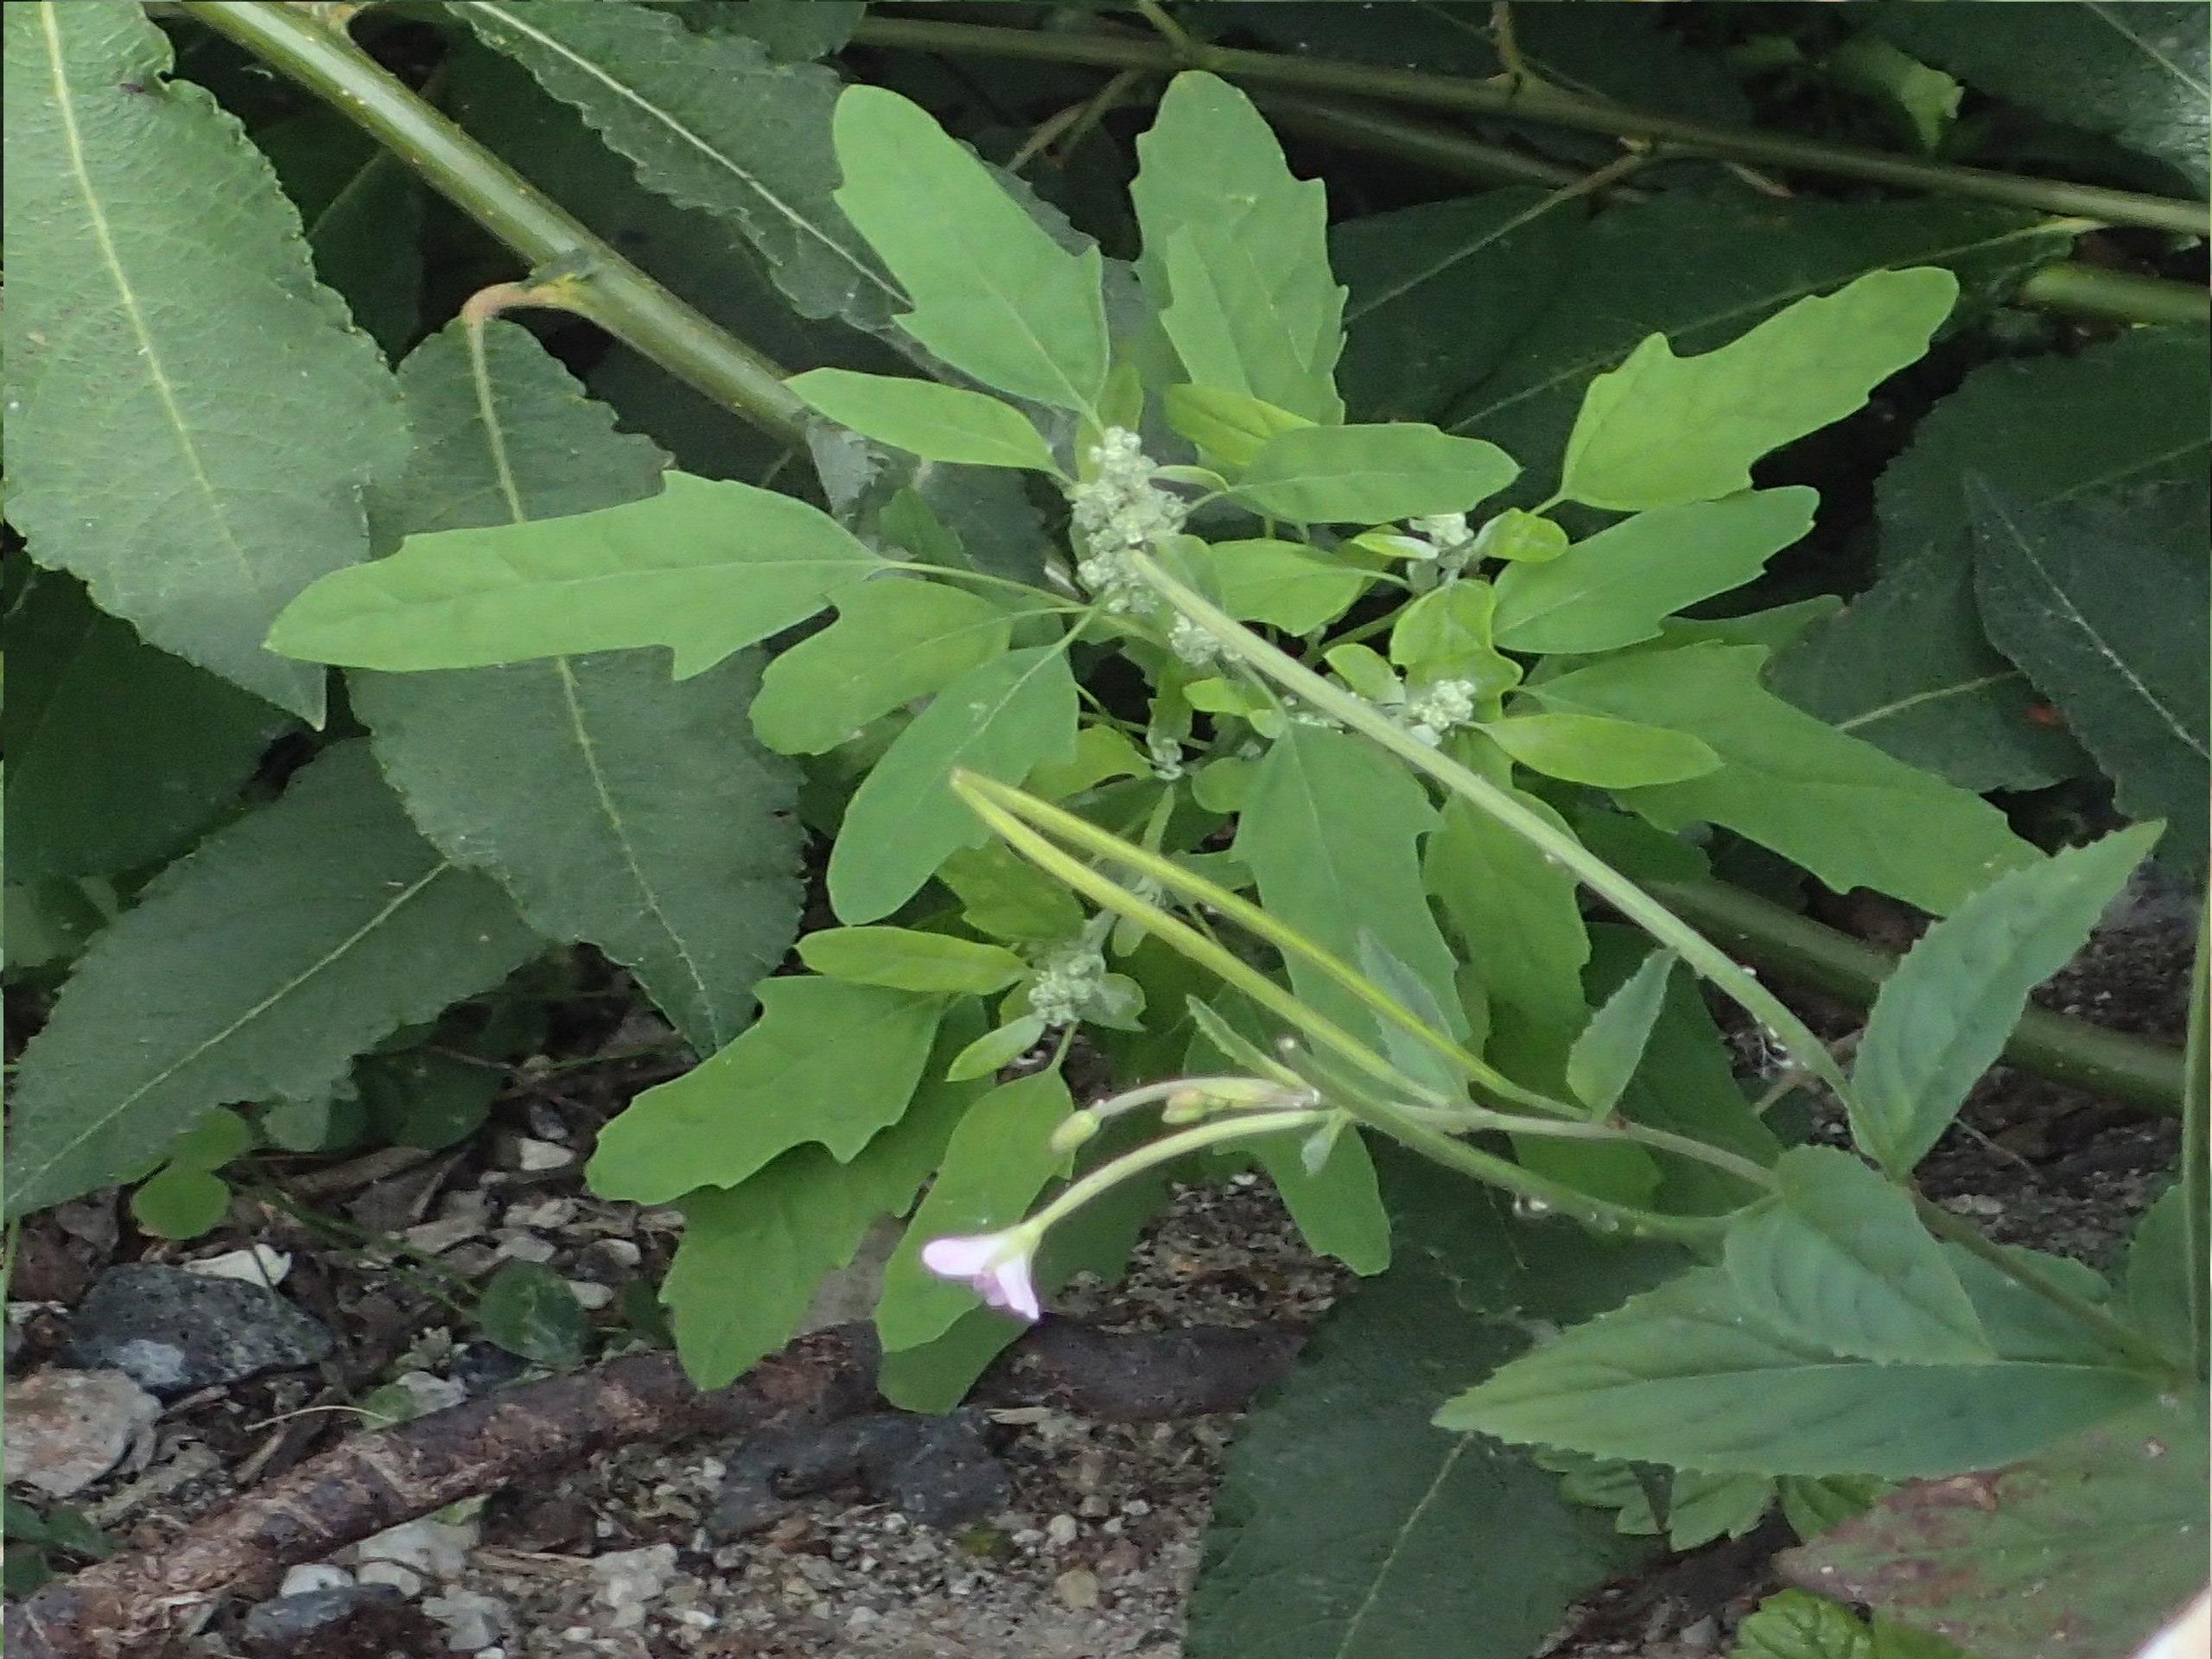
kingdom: Plantae
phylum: Tracheophyta
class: Magnoliopsida
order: Caryophyllales
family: Amaranthaceae
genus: Chenopodium
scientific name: Chenopodium ficifolium
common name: Figenbladet gåsefod
